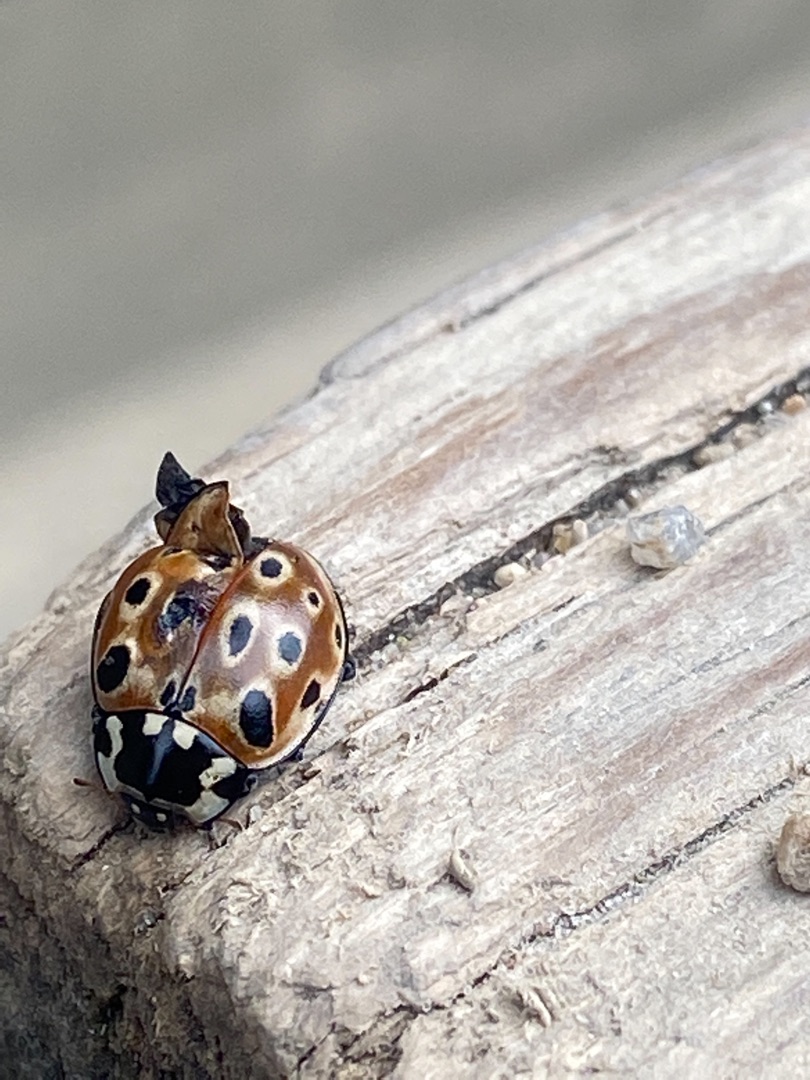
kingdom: Animalia
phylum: Arthropoda
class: Insecta
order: Coleoptera
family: Coccinellidae
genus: Anatis
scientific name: Anatis ocellata
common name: Øjeplettet mariehøne
